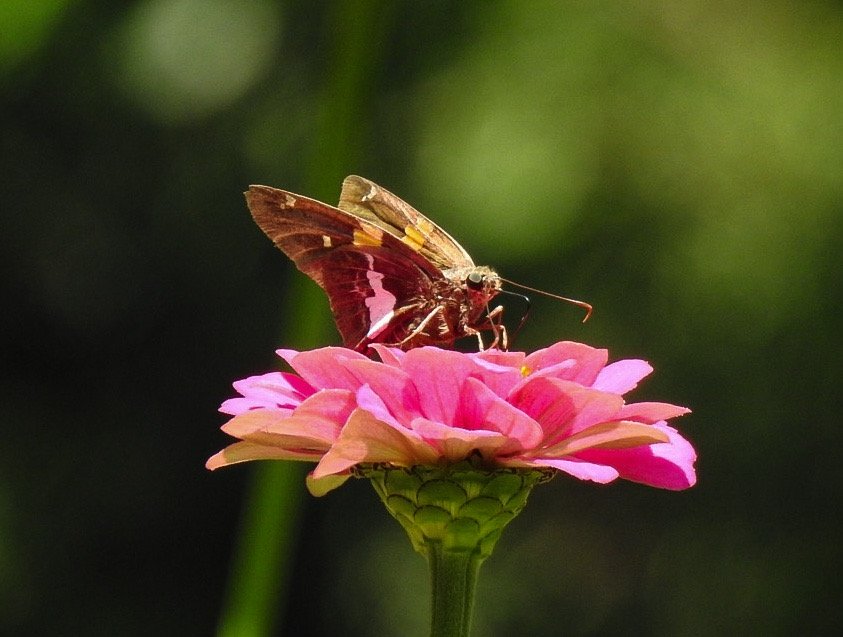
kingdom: Animalia
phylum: Arthropoda
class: Insecta
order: Lepidoptera
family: Hesperiidae
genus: Epargyreus
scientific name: Epargyreus clarus
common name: Silver-spotted Skipper
